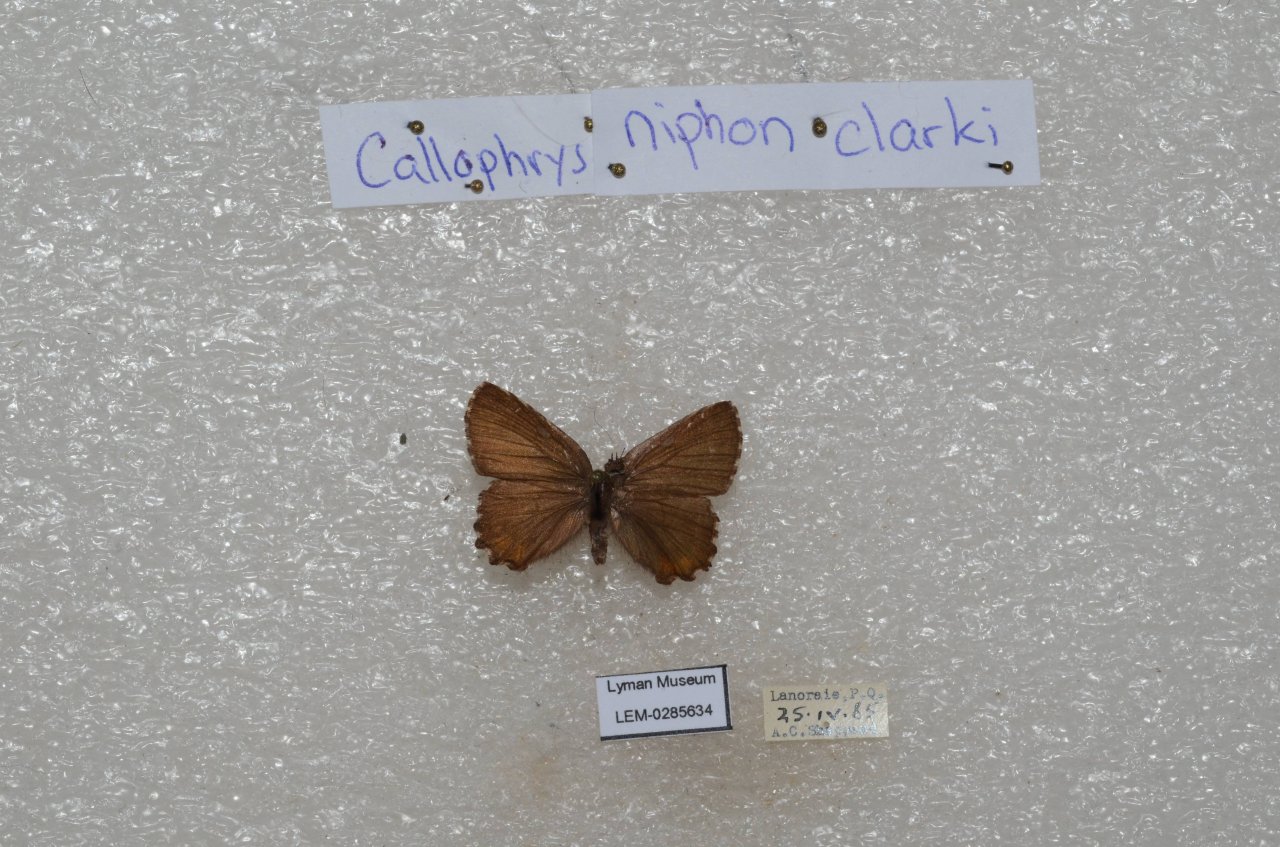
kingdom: Animalia
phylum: Arthropoda
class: Insecta
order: Lepidoptera
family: Lycaenidae
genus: Incisalia
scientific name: Incisalia niphon
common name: Eastern Pine Elfin
